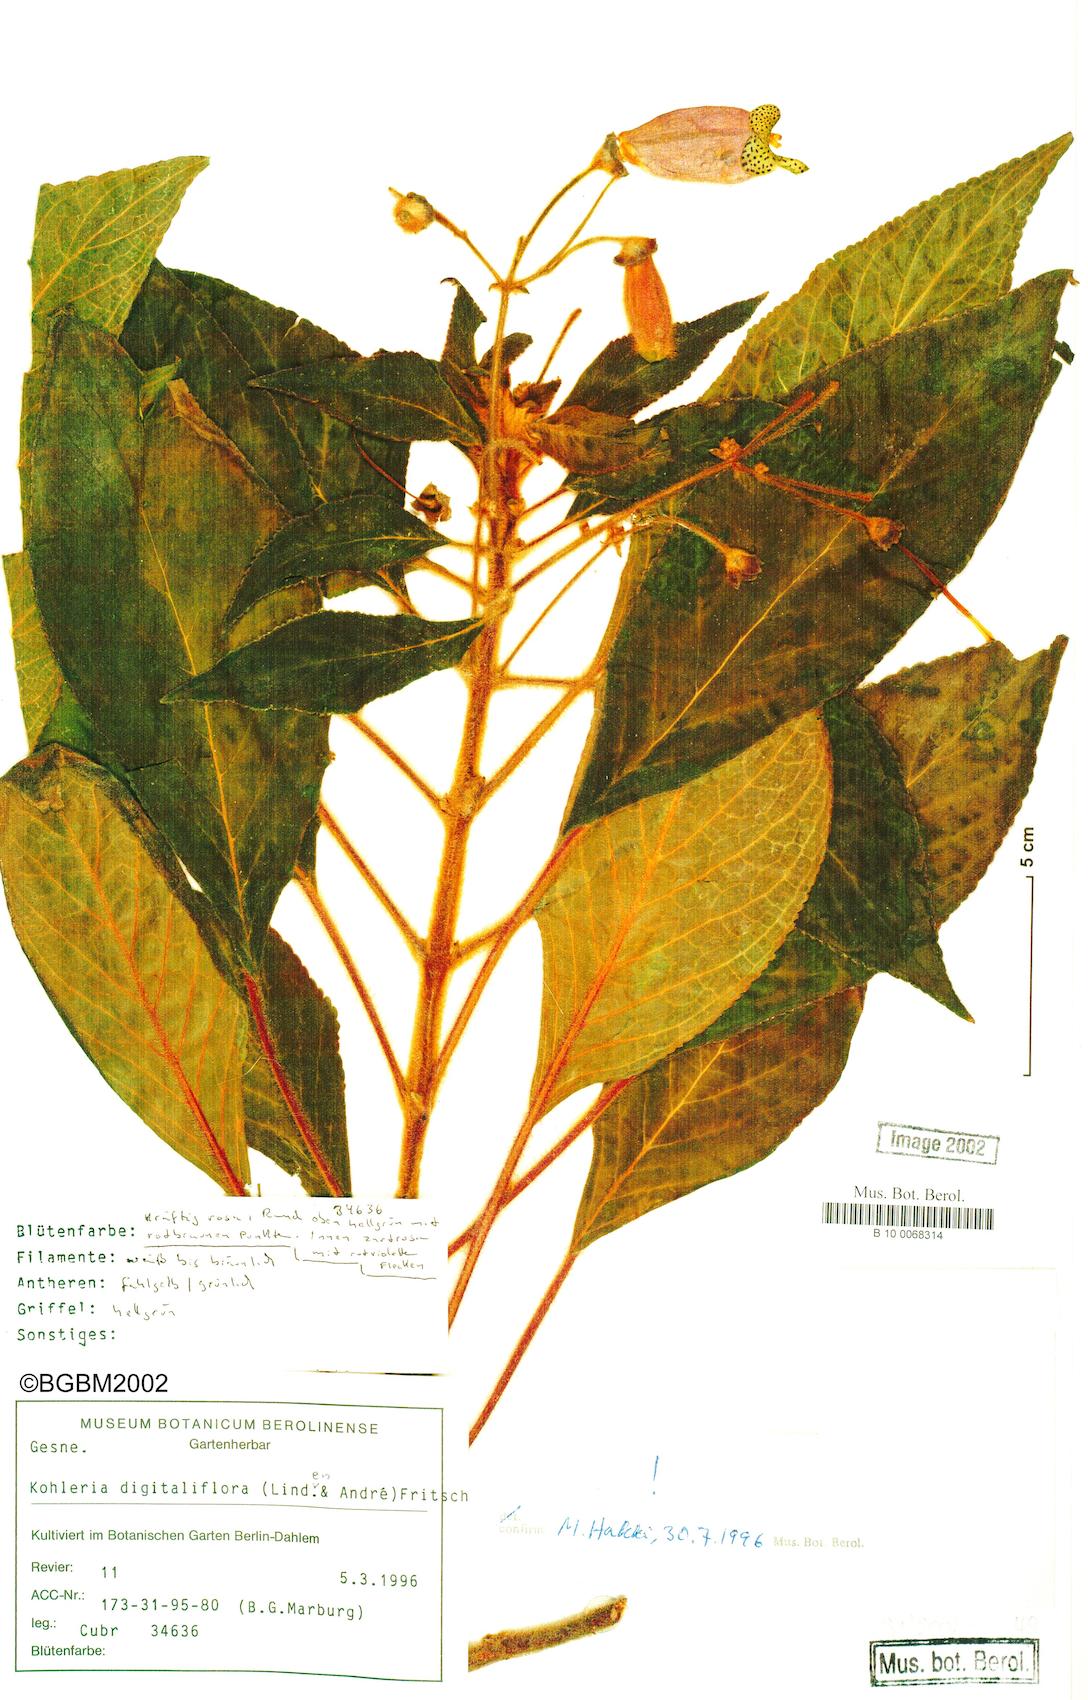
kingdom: Plantae
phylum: Tracheophyta
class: Magnoliopsida
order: Lamiales
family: Gesneriaceae
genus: Kohleria
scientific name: Kohleria warszewiczii
